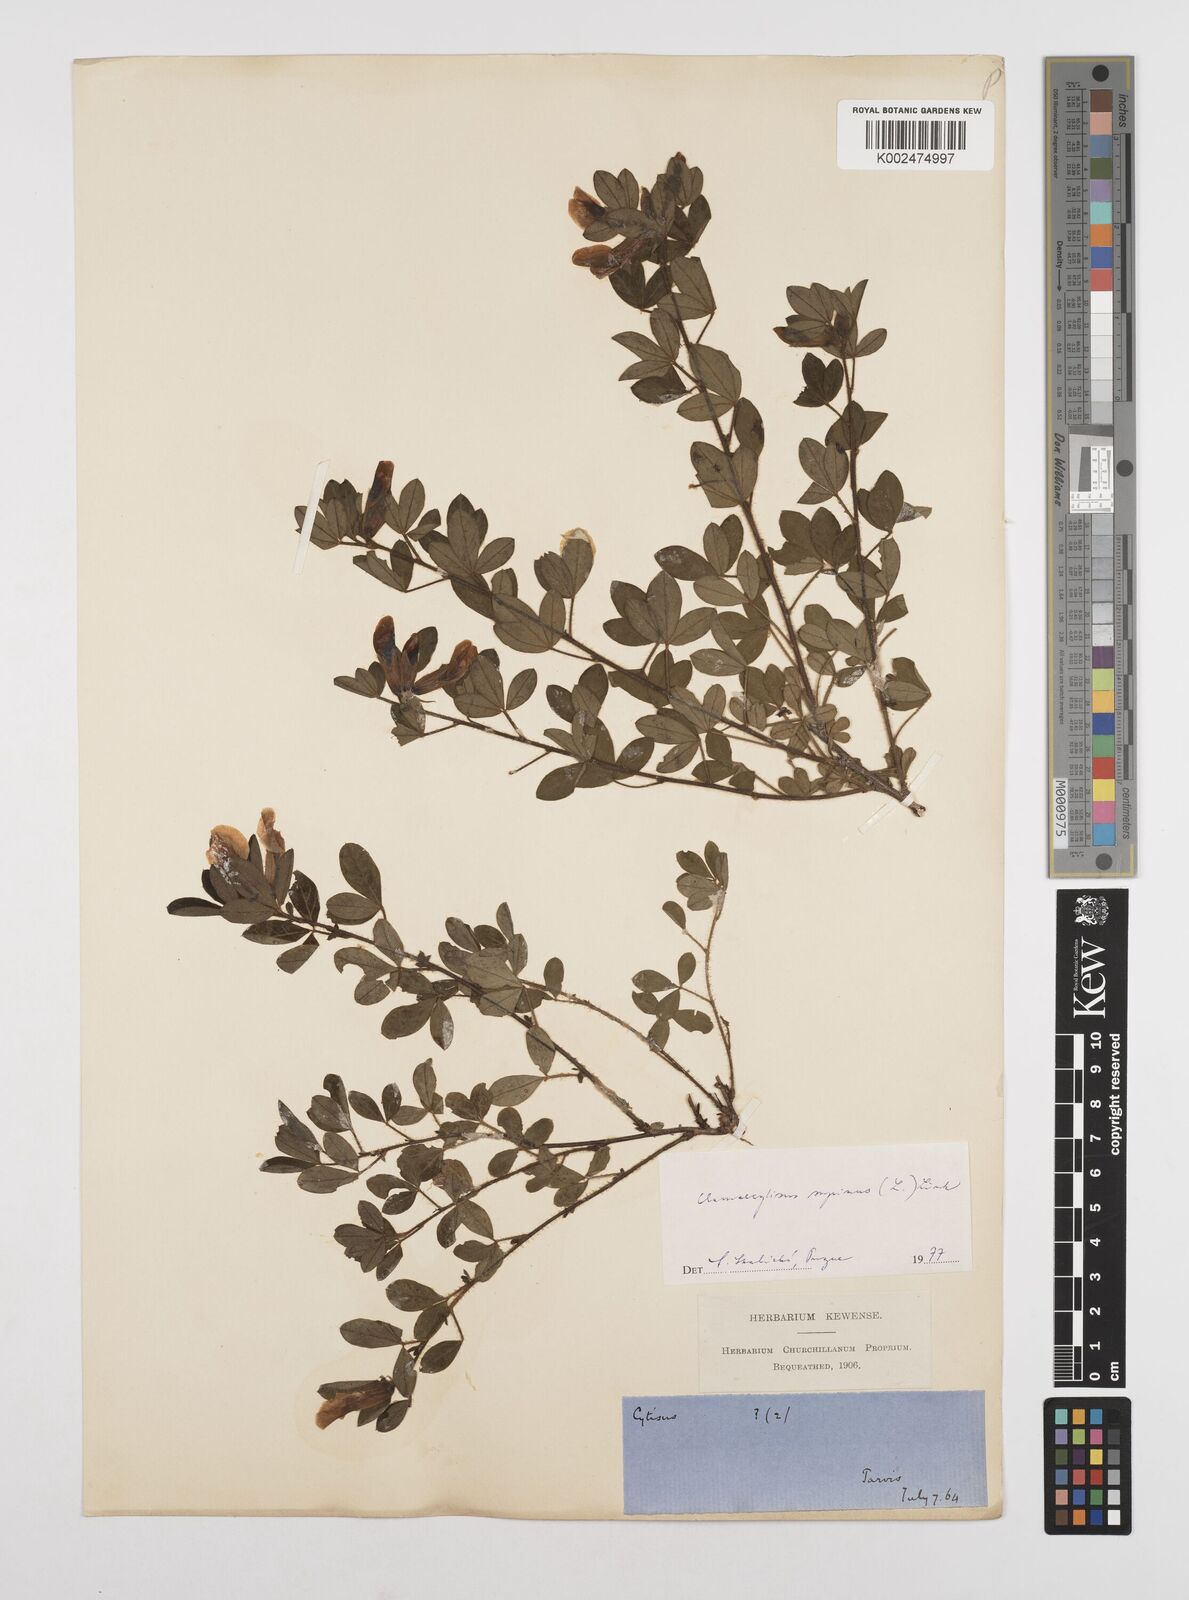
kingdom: Plantae
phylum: Tracheophyta
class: Magnoliopsida
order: Fabales
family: Fabaceae
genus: Chamaecytisus
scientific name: Chamaecytisus hirsutus
